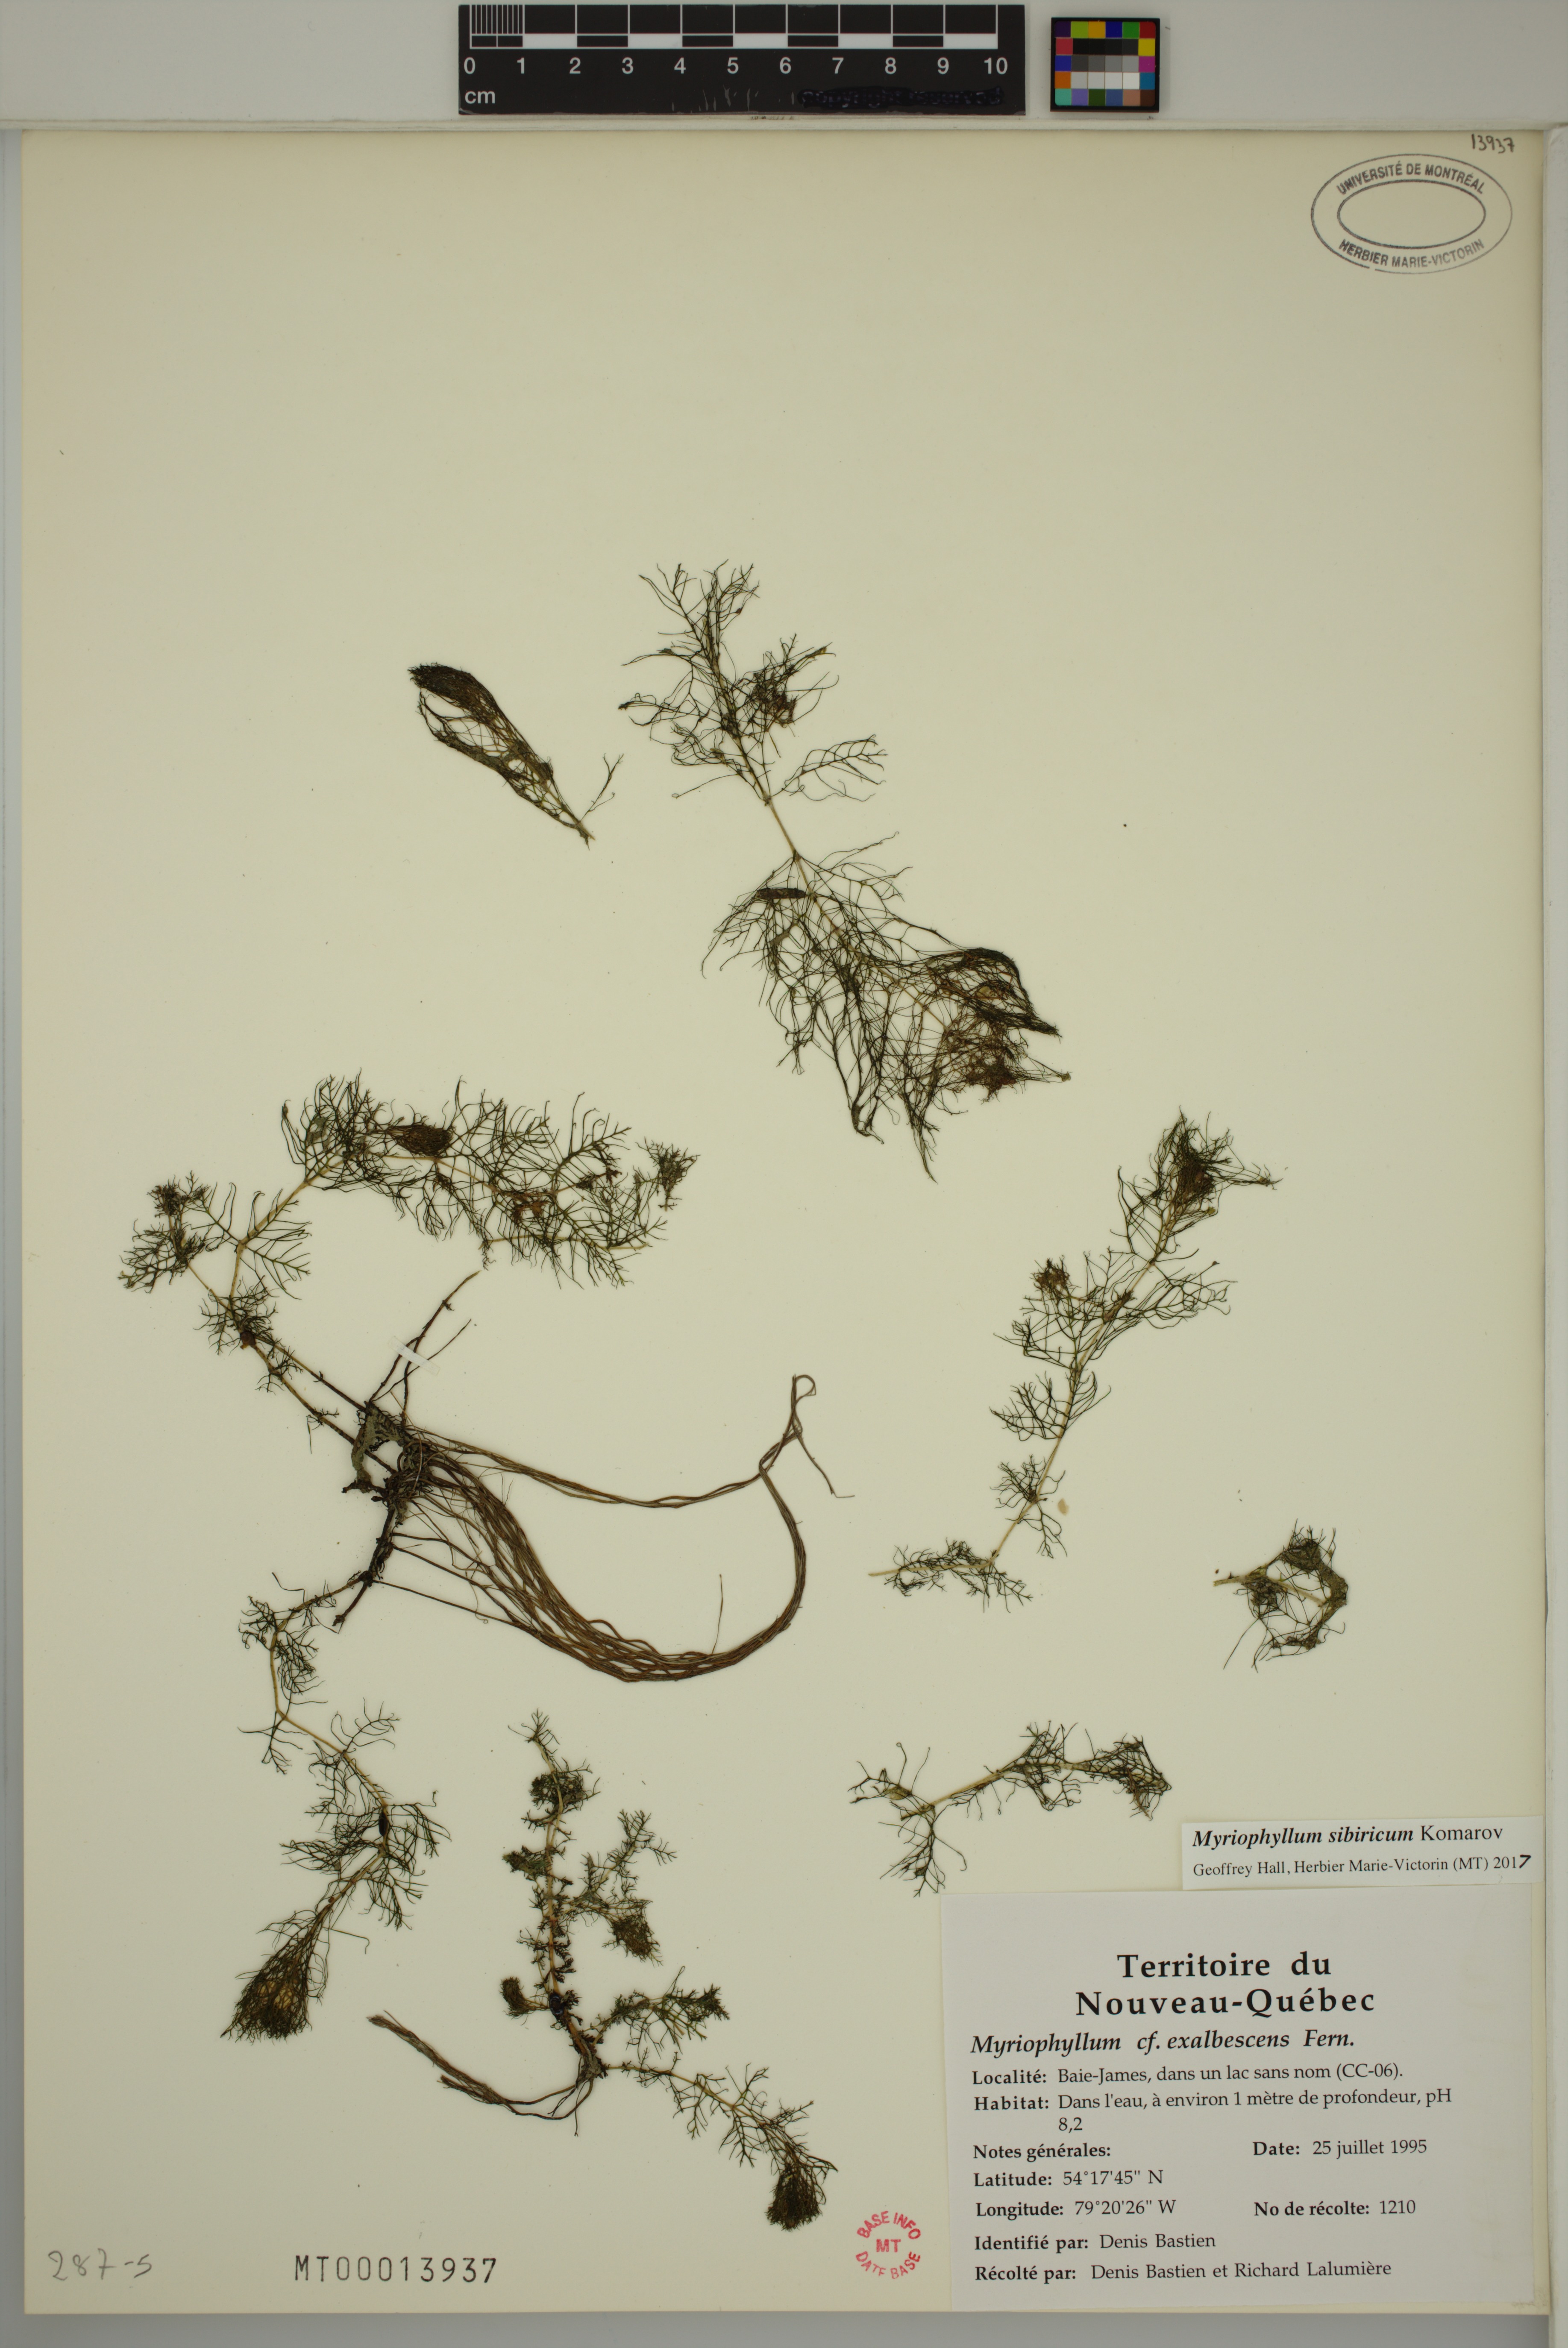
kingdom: Plantae
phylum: Tracheophyta
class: Magnoliopsida
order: Saxifragales
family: Haloragaceae
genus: Myriophyllum
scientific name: Myriophyllum sibiricum
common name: Siberian water-milfoil
